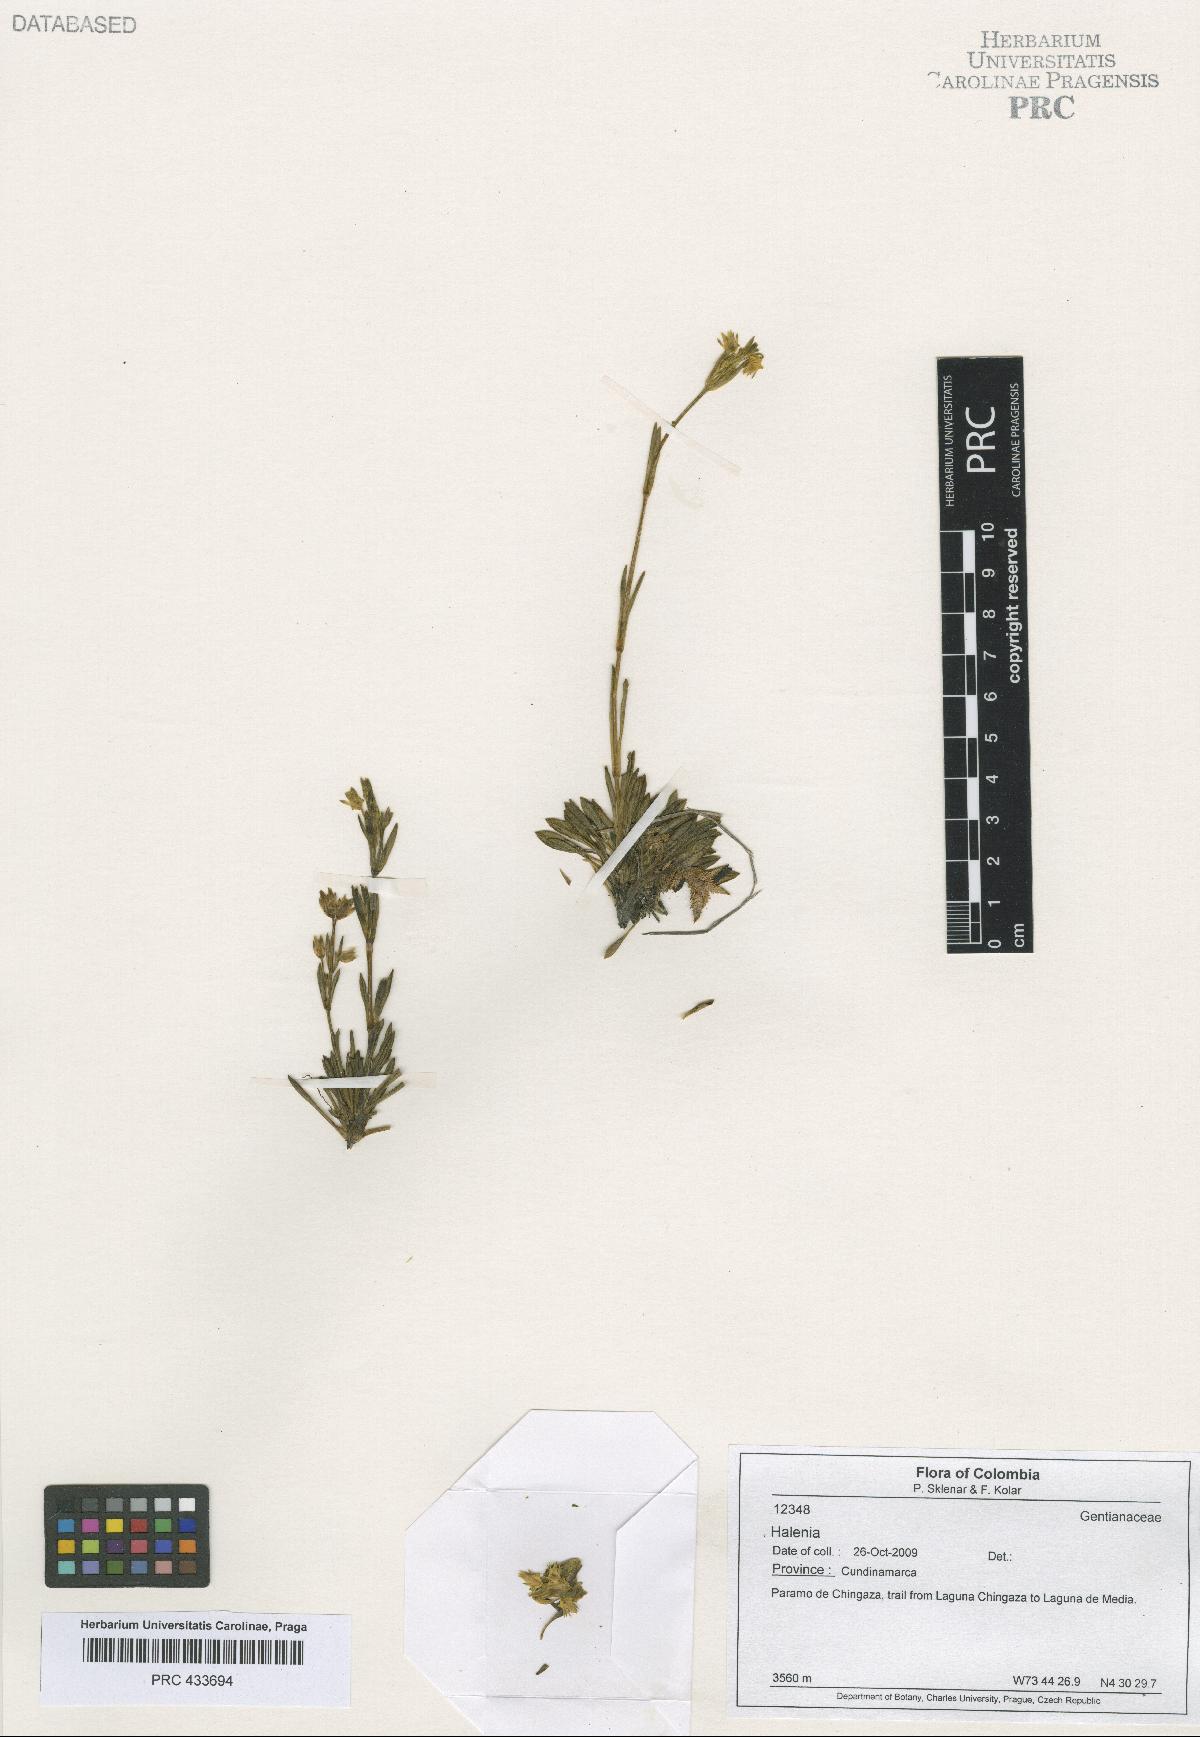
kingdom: Plantae
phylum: Tracheophyta
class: Magnoliopsida
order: Gentianales
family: Gentianaceae
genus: Halenia
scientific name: Halenia
